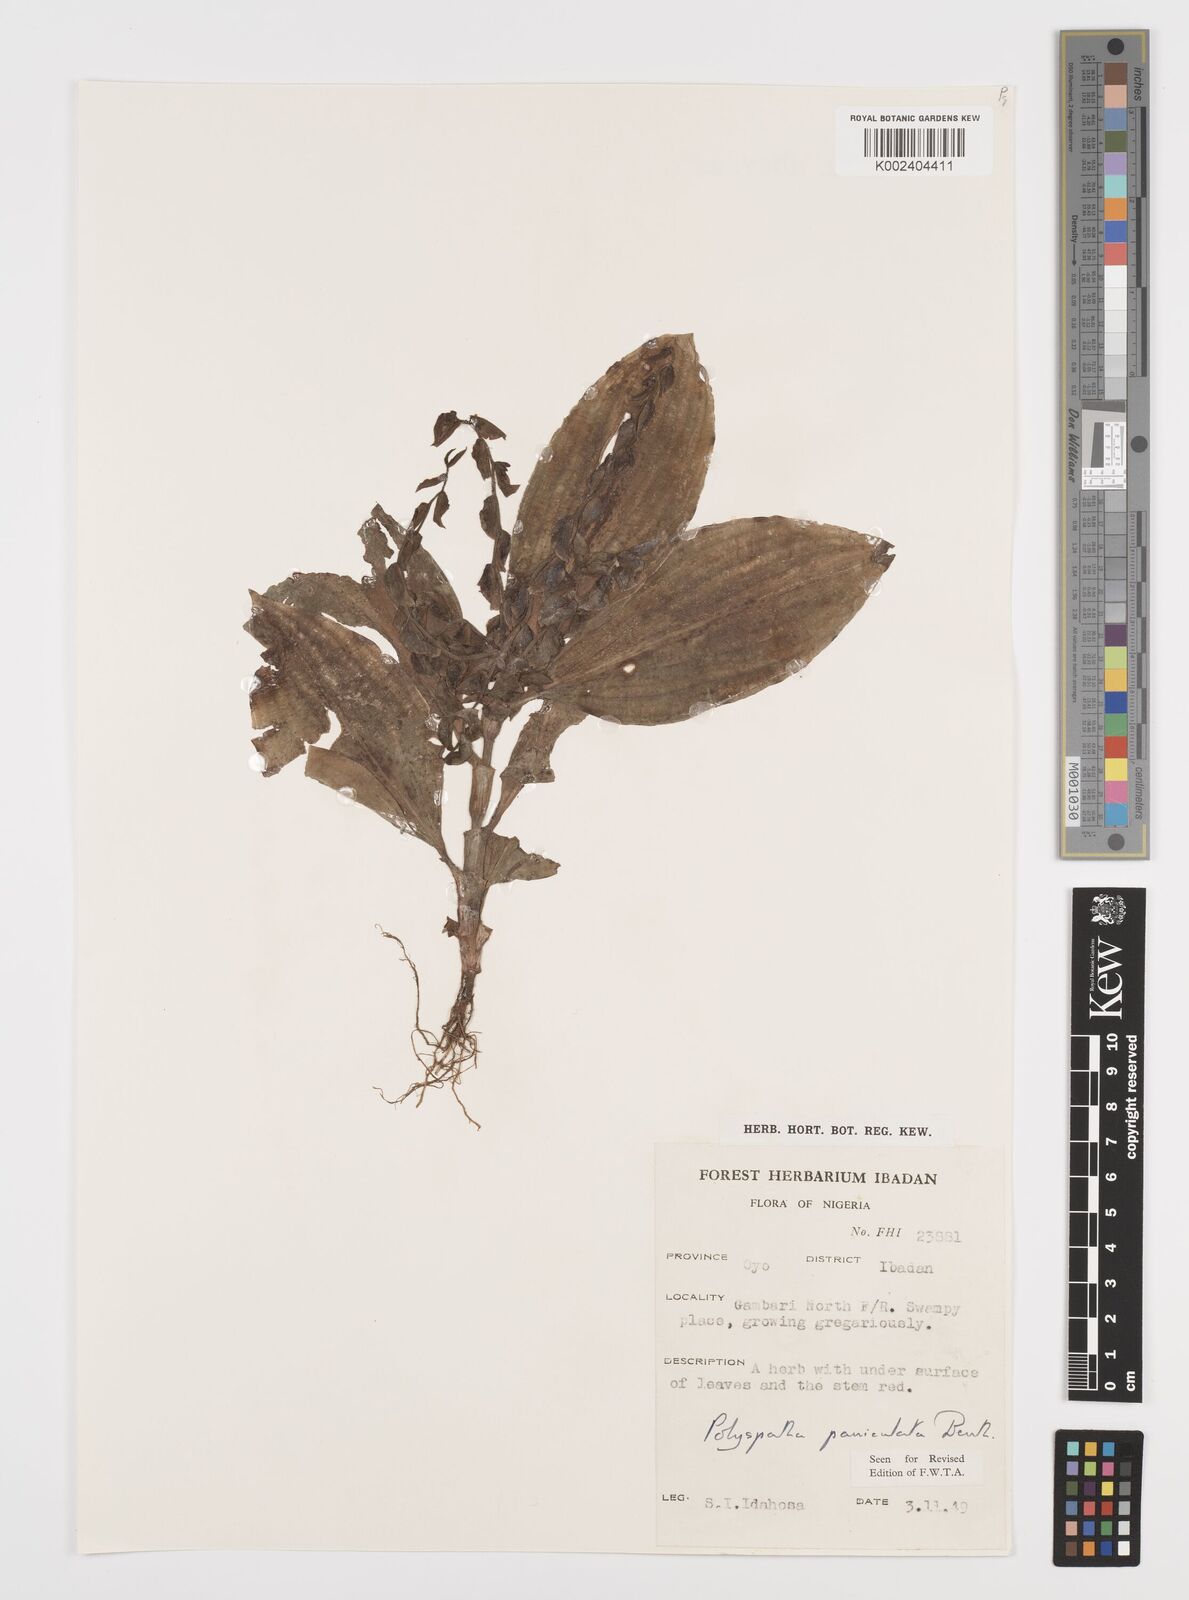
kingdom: Plantae
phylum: Tracheophyta
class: Liliopsida
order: Commelinales
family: Commelinaceae
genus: Polyspatha
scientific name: Polyspatha paniculata
